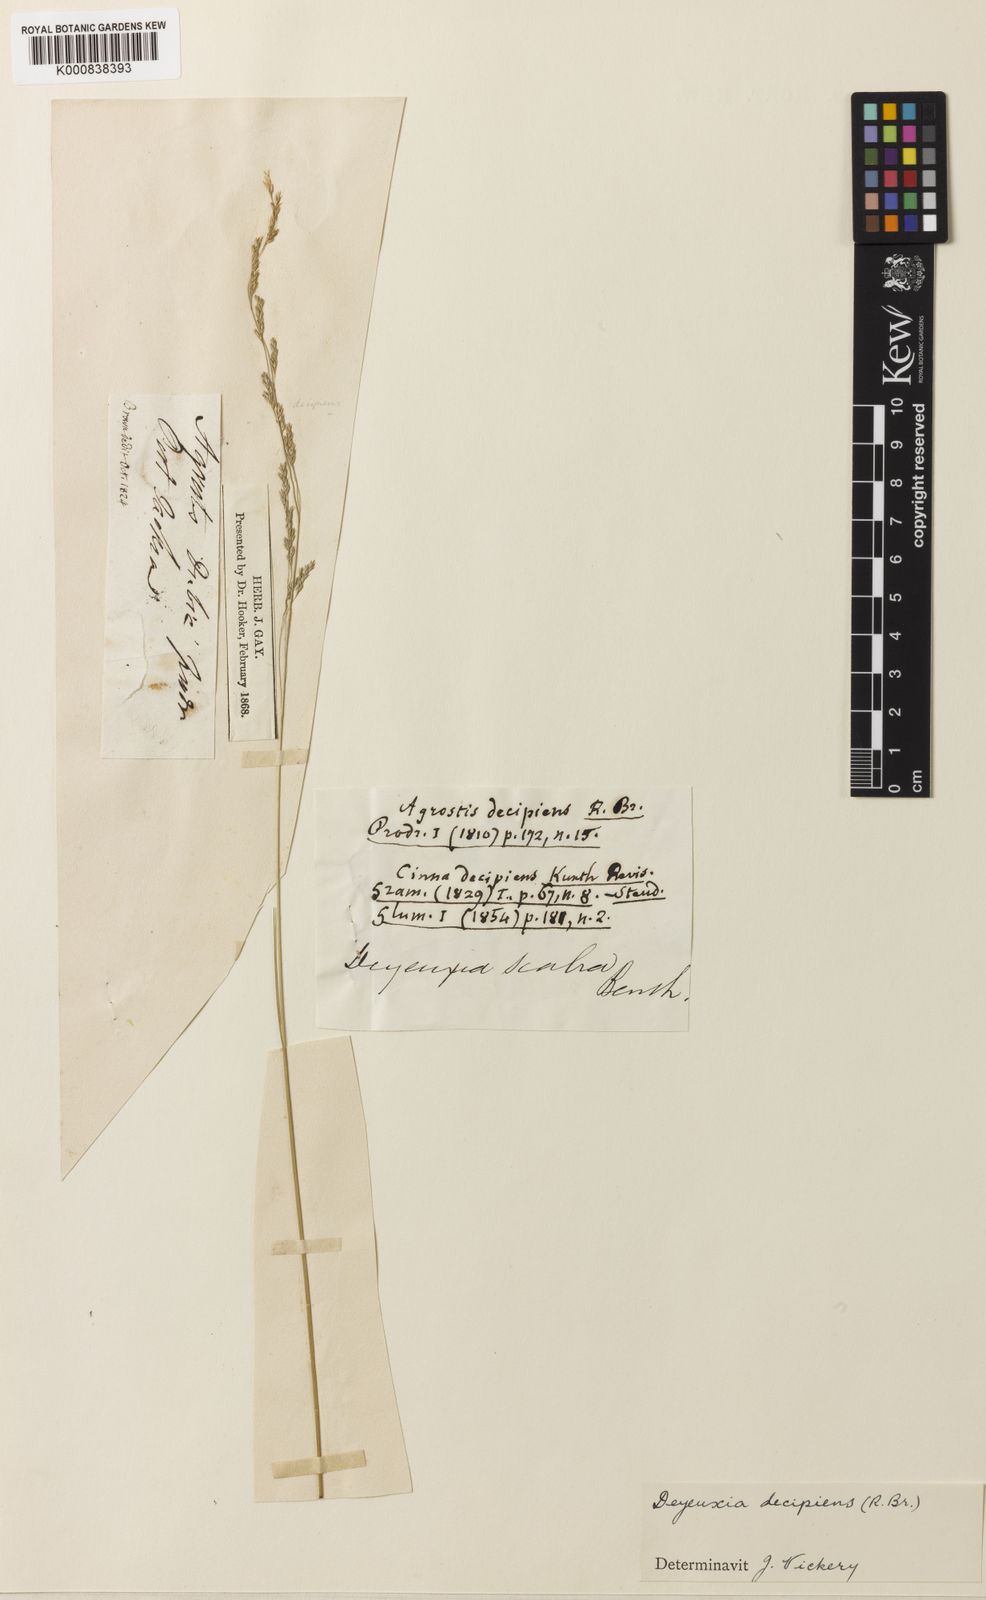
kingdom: Plantae
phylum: Tracheophyta
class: Liliopsida
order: Poales
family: Poaceae
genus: Calamagrostis
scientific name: Calamagrostis decipiens
